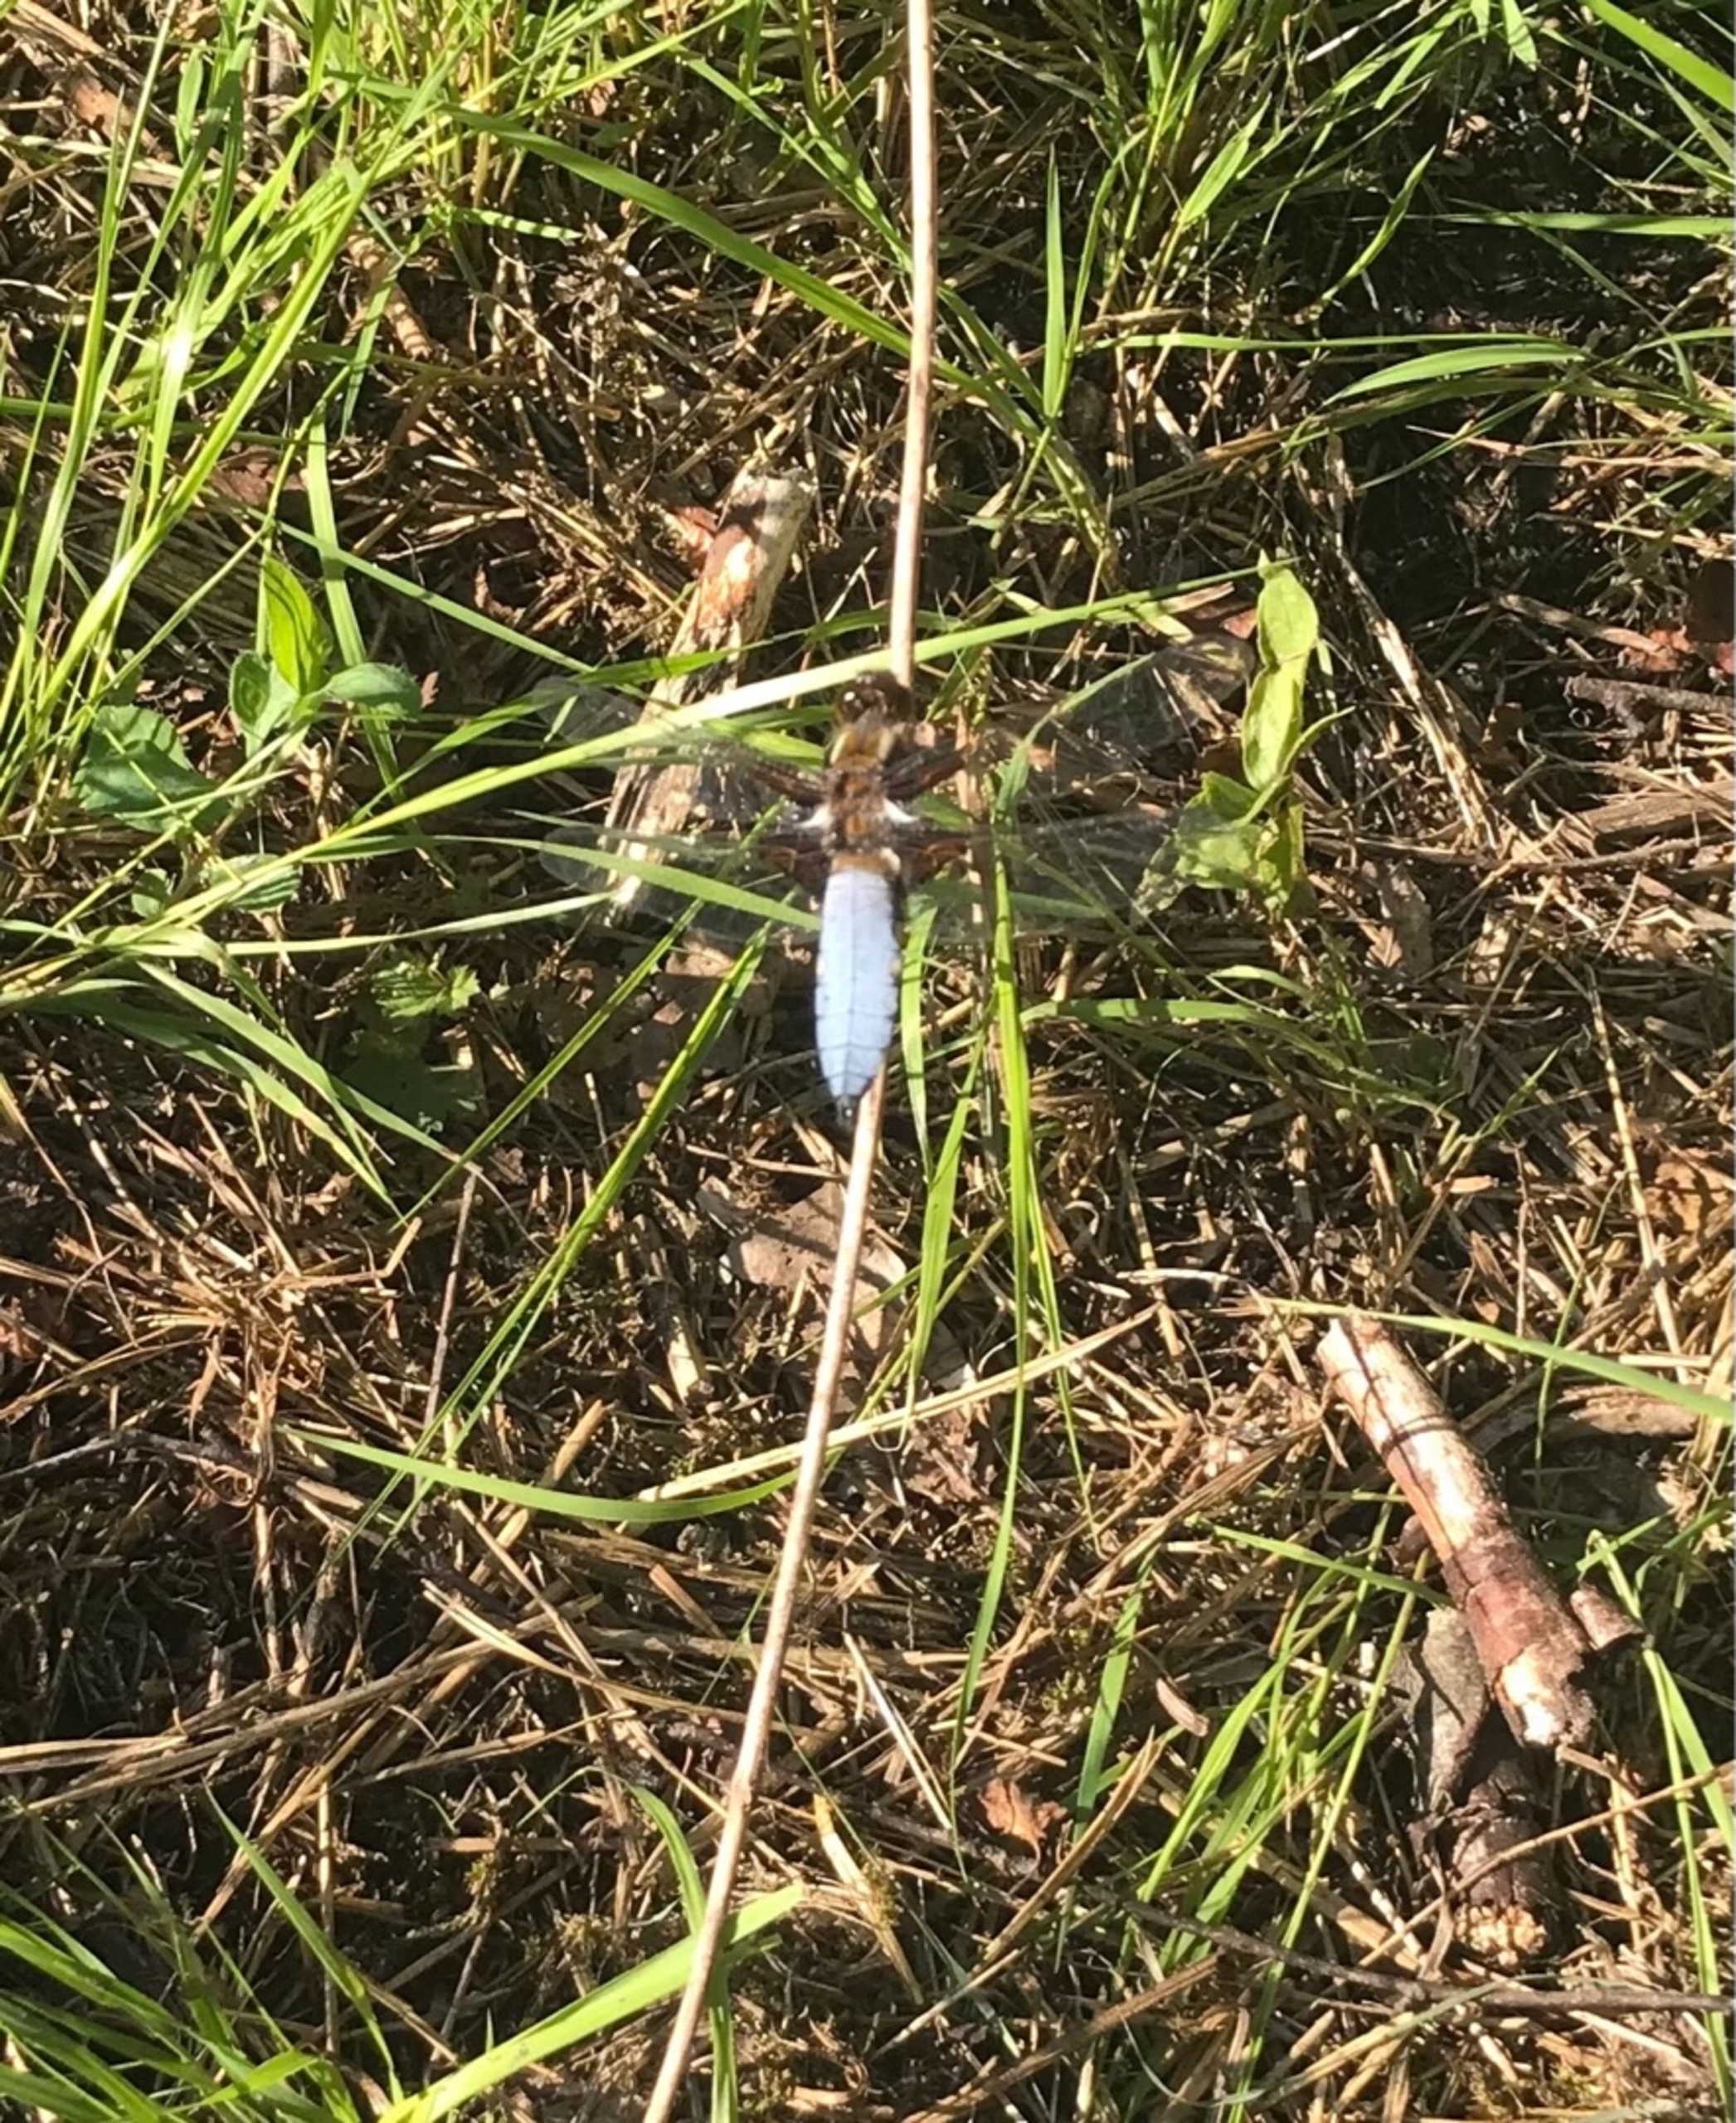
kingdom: Animalia
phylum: Arthropoda
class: Insecta
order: Odonata
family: Libellulidae
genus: Libellula
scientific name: Libellula depressa
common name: Blå libel
